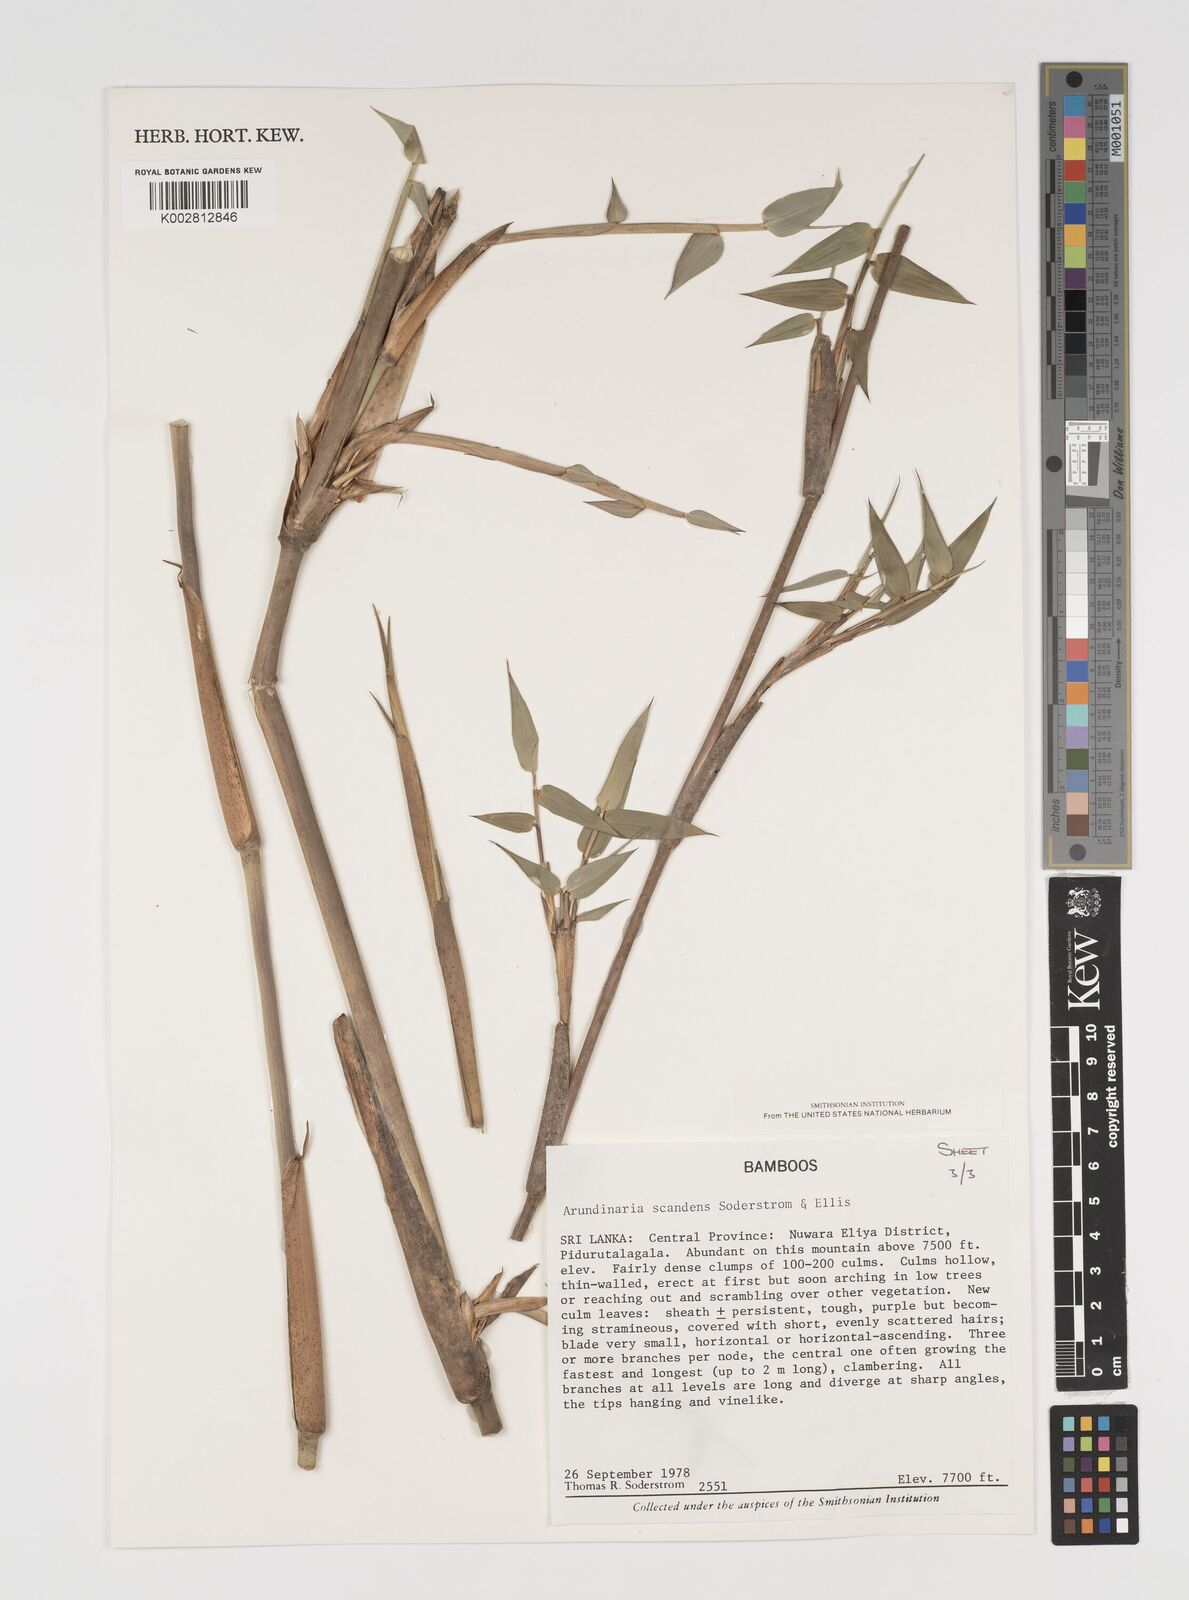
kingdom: Plantae
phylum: Tracheophyta
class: Liliopsida
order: Poales
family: Poaceae
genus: Kuruna
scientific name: Kuruna scandens
